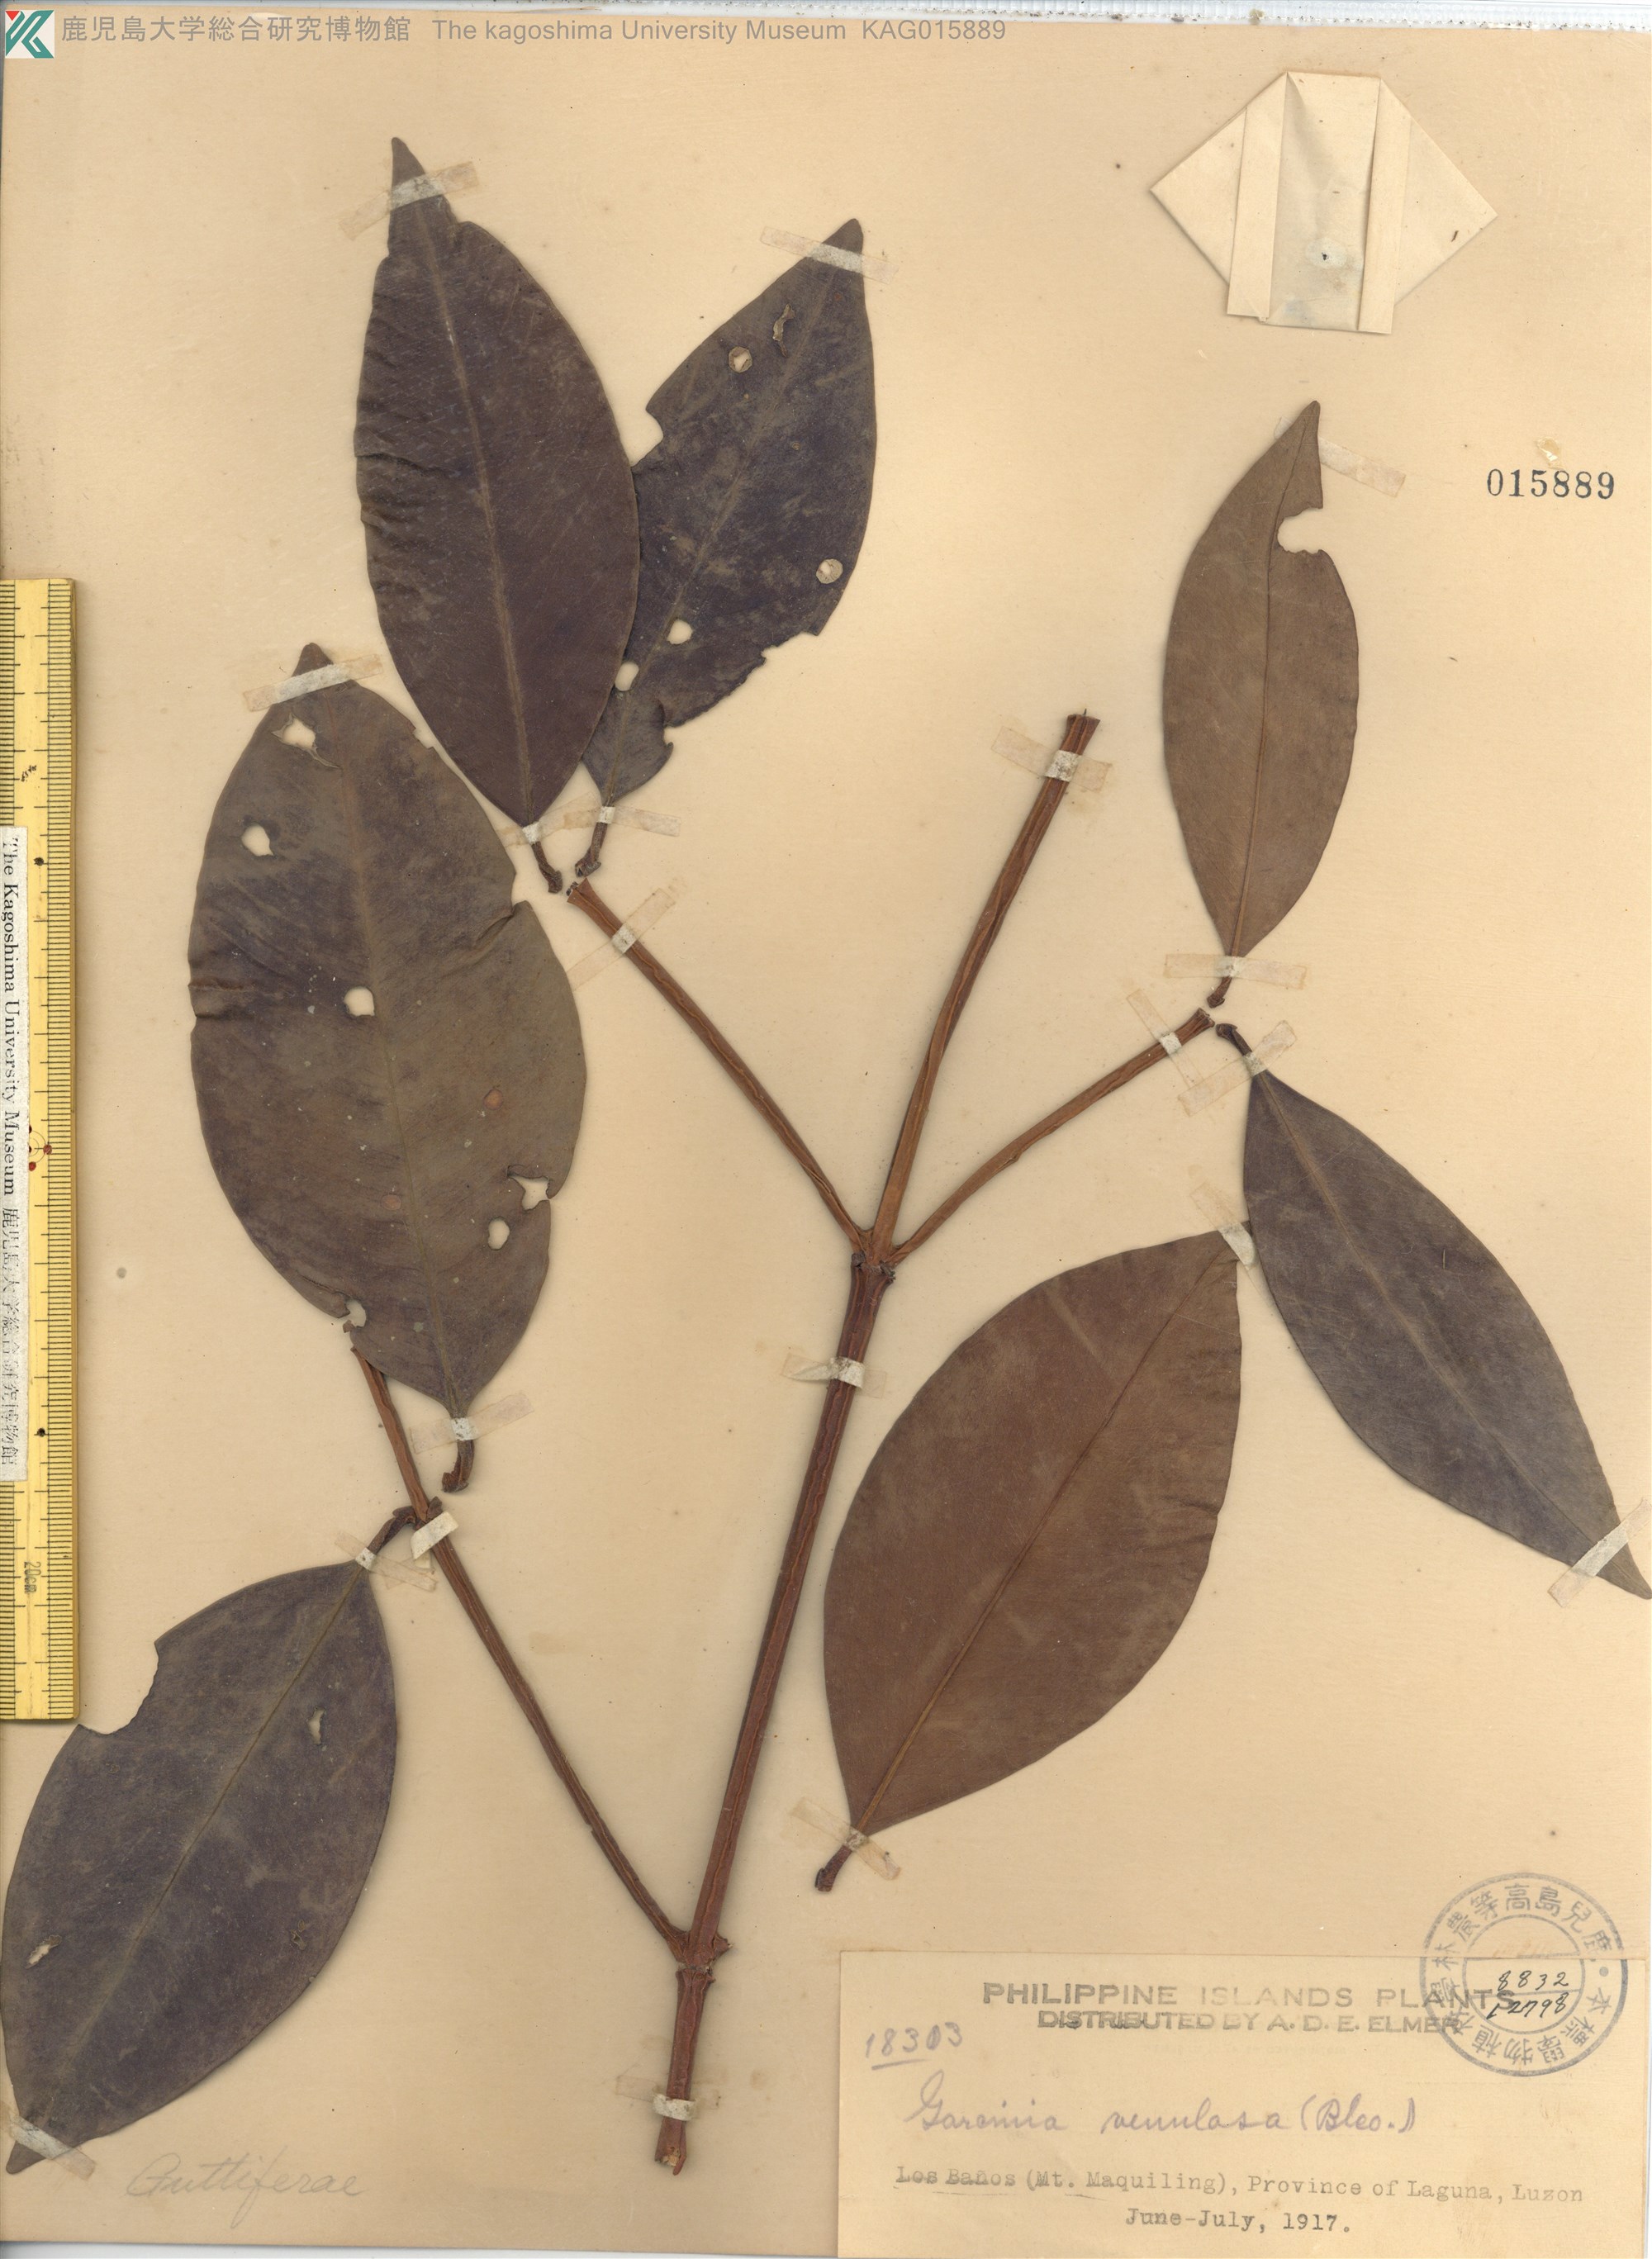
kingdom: Plantae
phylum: Tracheophyta
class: Magnoliopsida
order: Malpighiales
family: Clusiaceae
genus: Garcinia
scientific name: Garcinia venulosa
